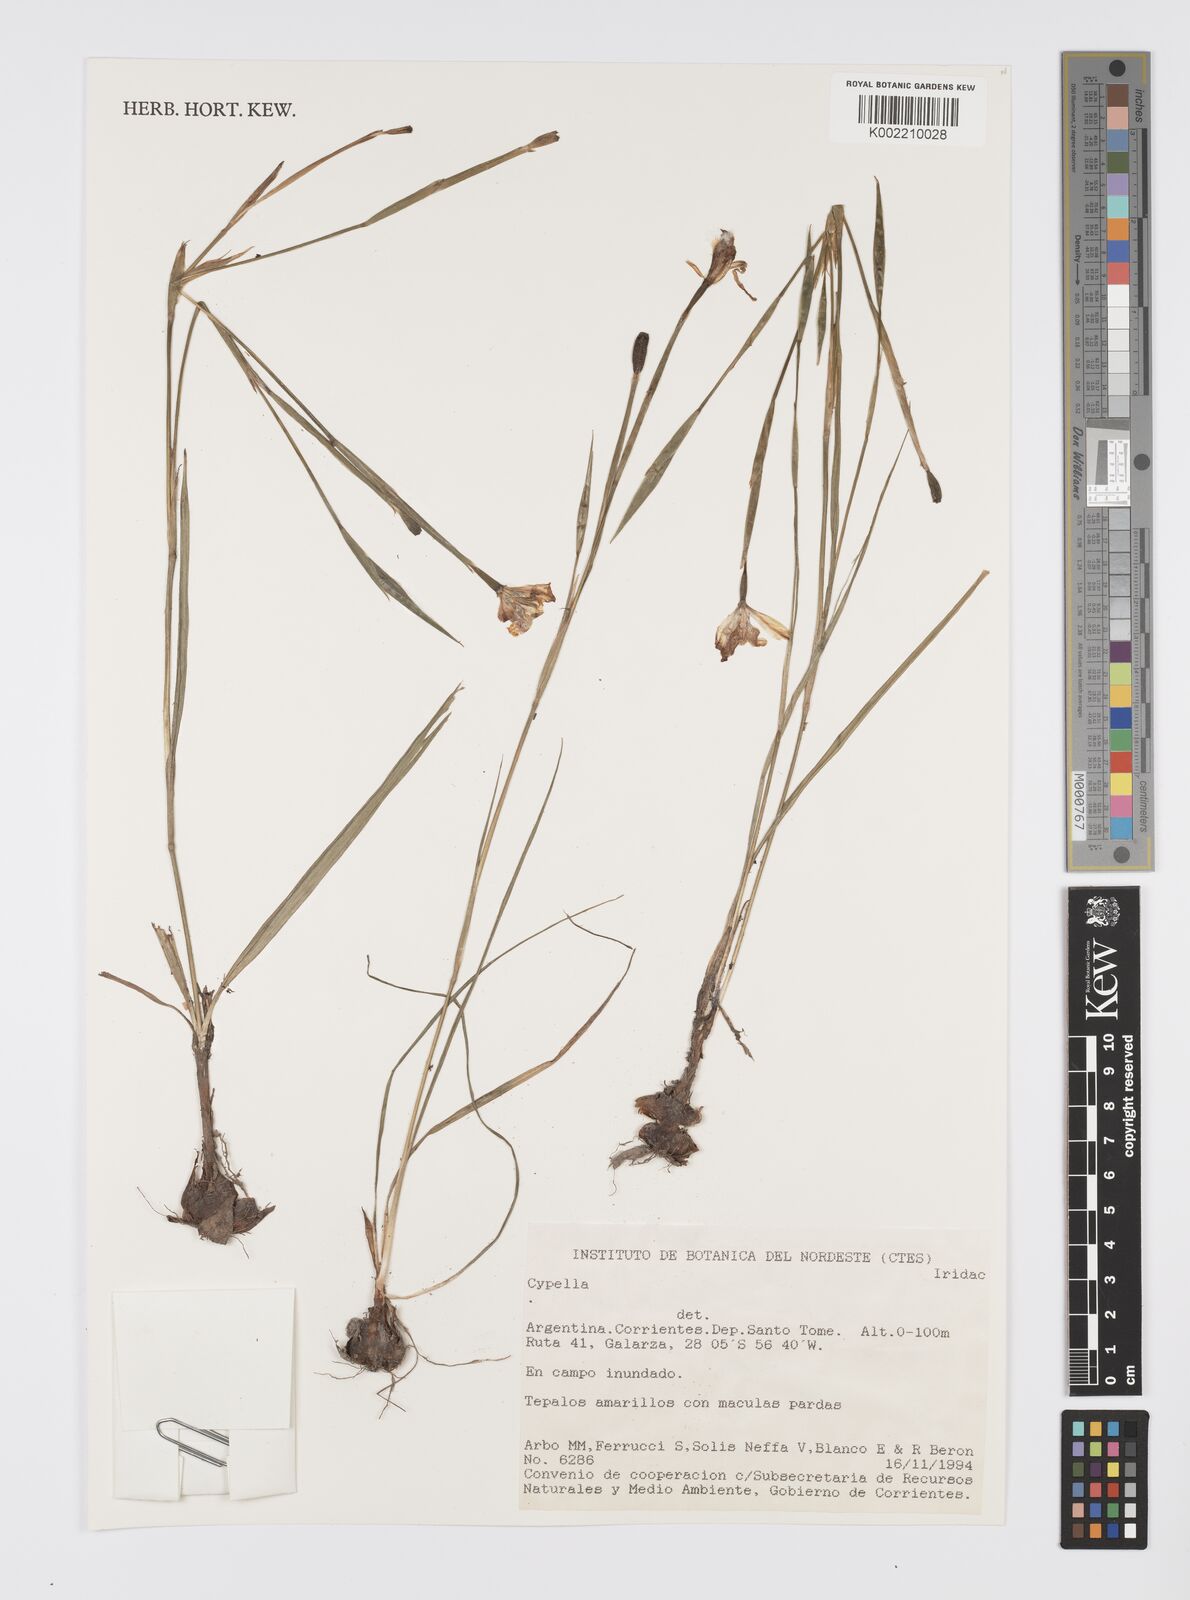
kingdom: Plantae
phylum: Tracheophyta
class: Liliopsida
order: Asparagales
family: Iridaceae
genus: Cypella
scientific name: Cypella
